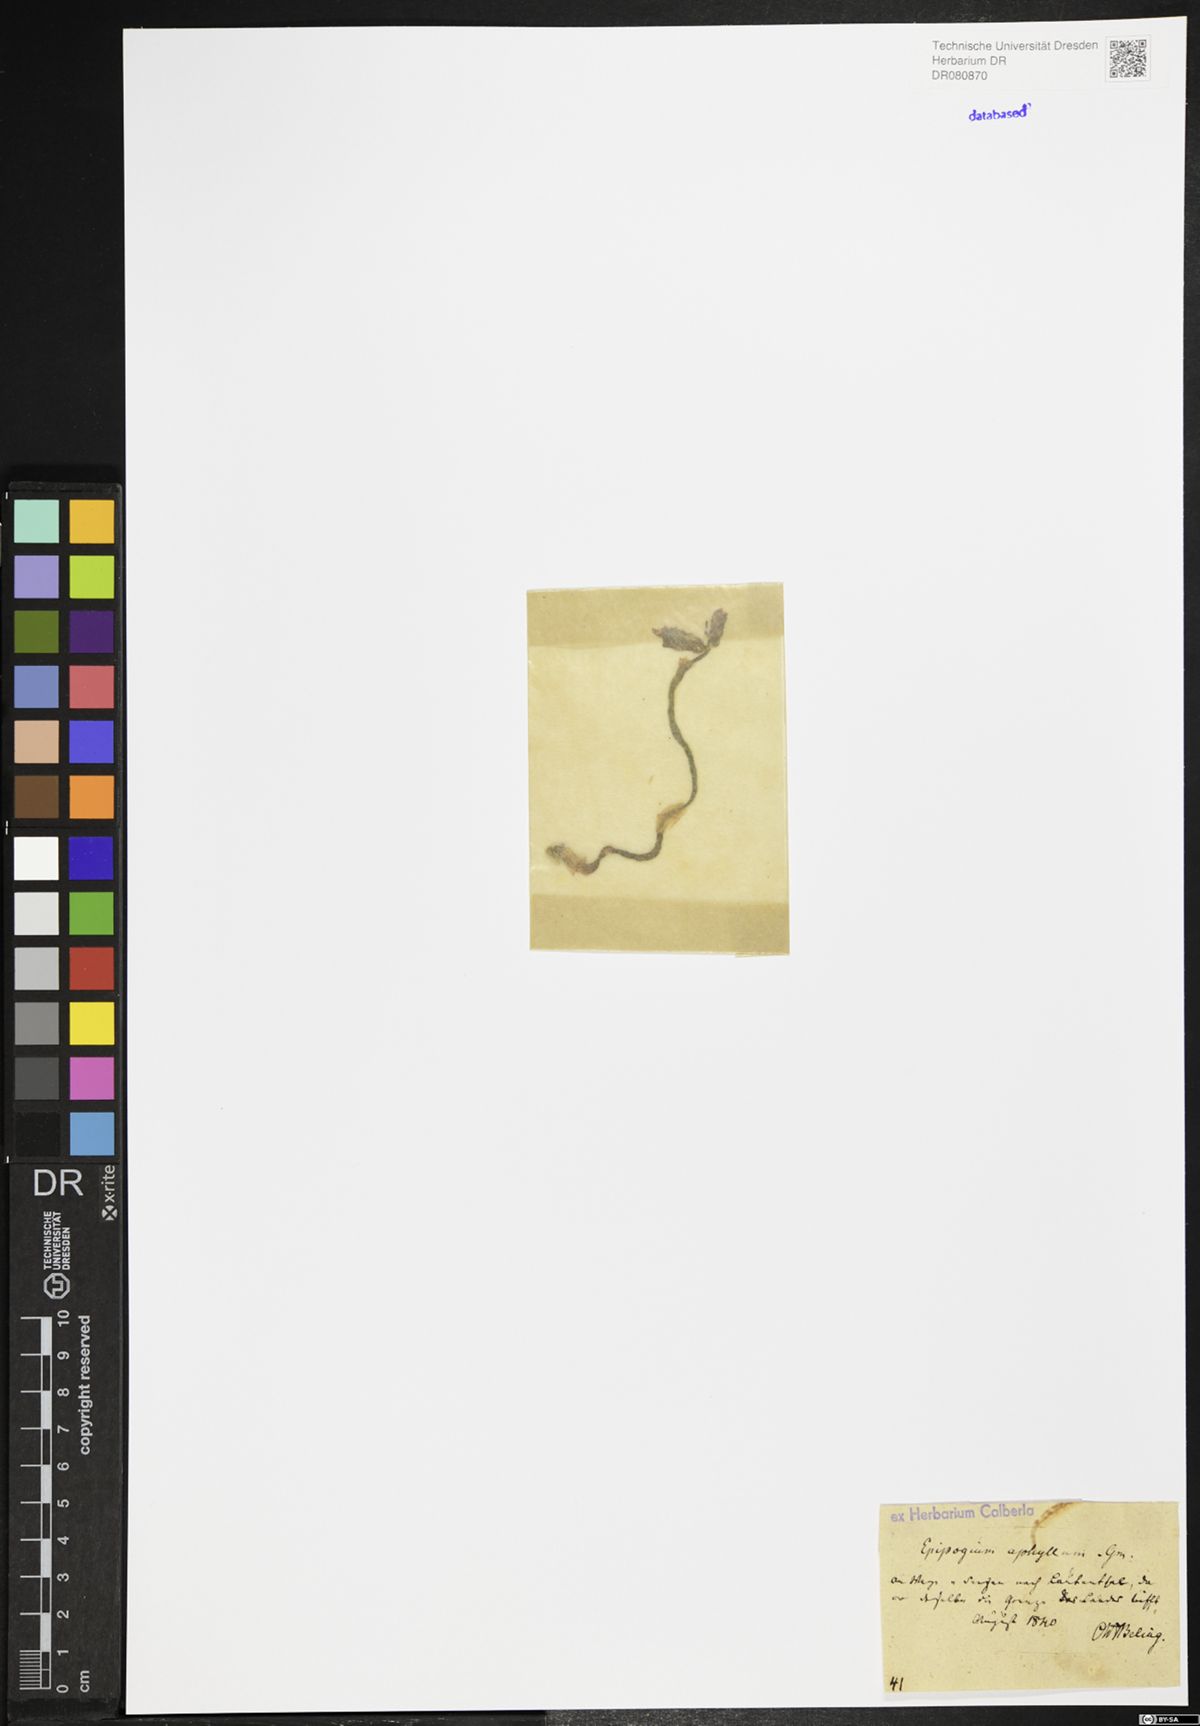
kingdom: Plantae
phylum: Tracheophyta
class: Liliopsida
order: Asparagales
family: Orchidaceae
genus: Epipogium
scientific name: Epipogium aphyllum
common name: Ghost orchid
